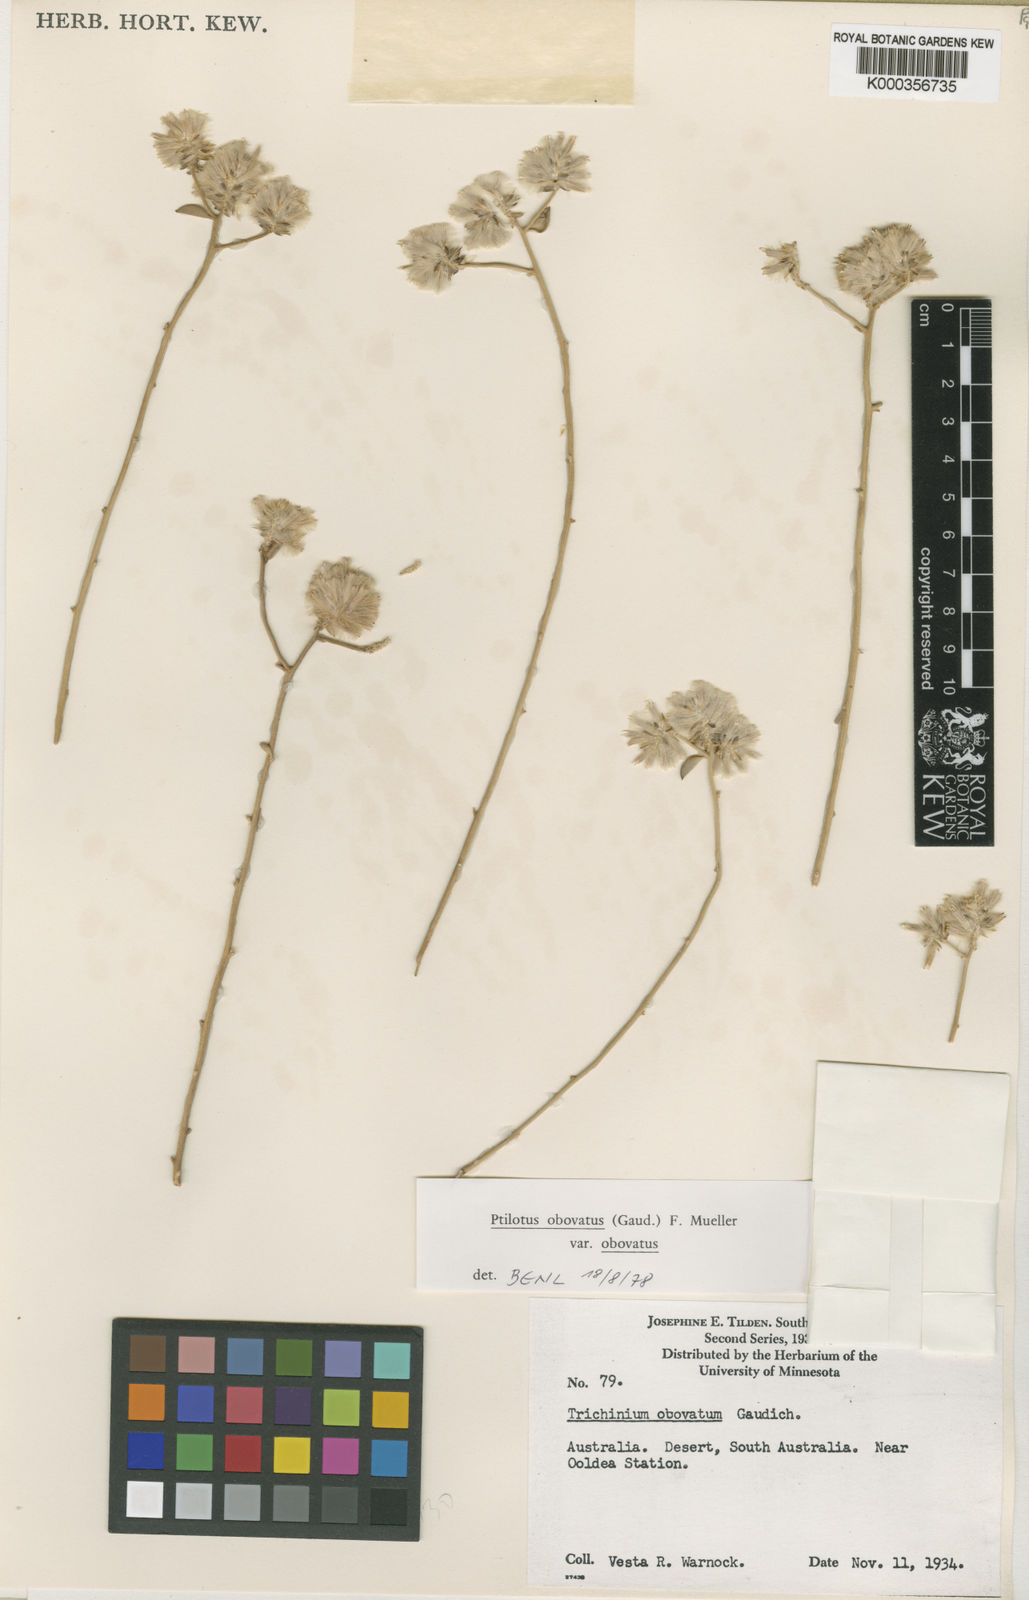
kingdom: Plantae
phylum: Tracheophyta
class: Magnoliopsida
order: Caryophyllales
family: Amaranthaceae
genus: Ptilotus
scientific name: Ptilotus
